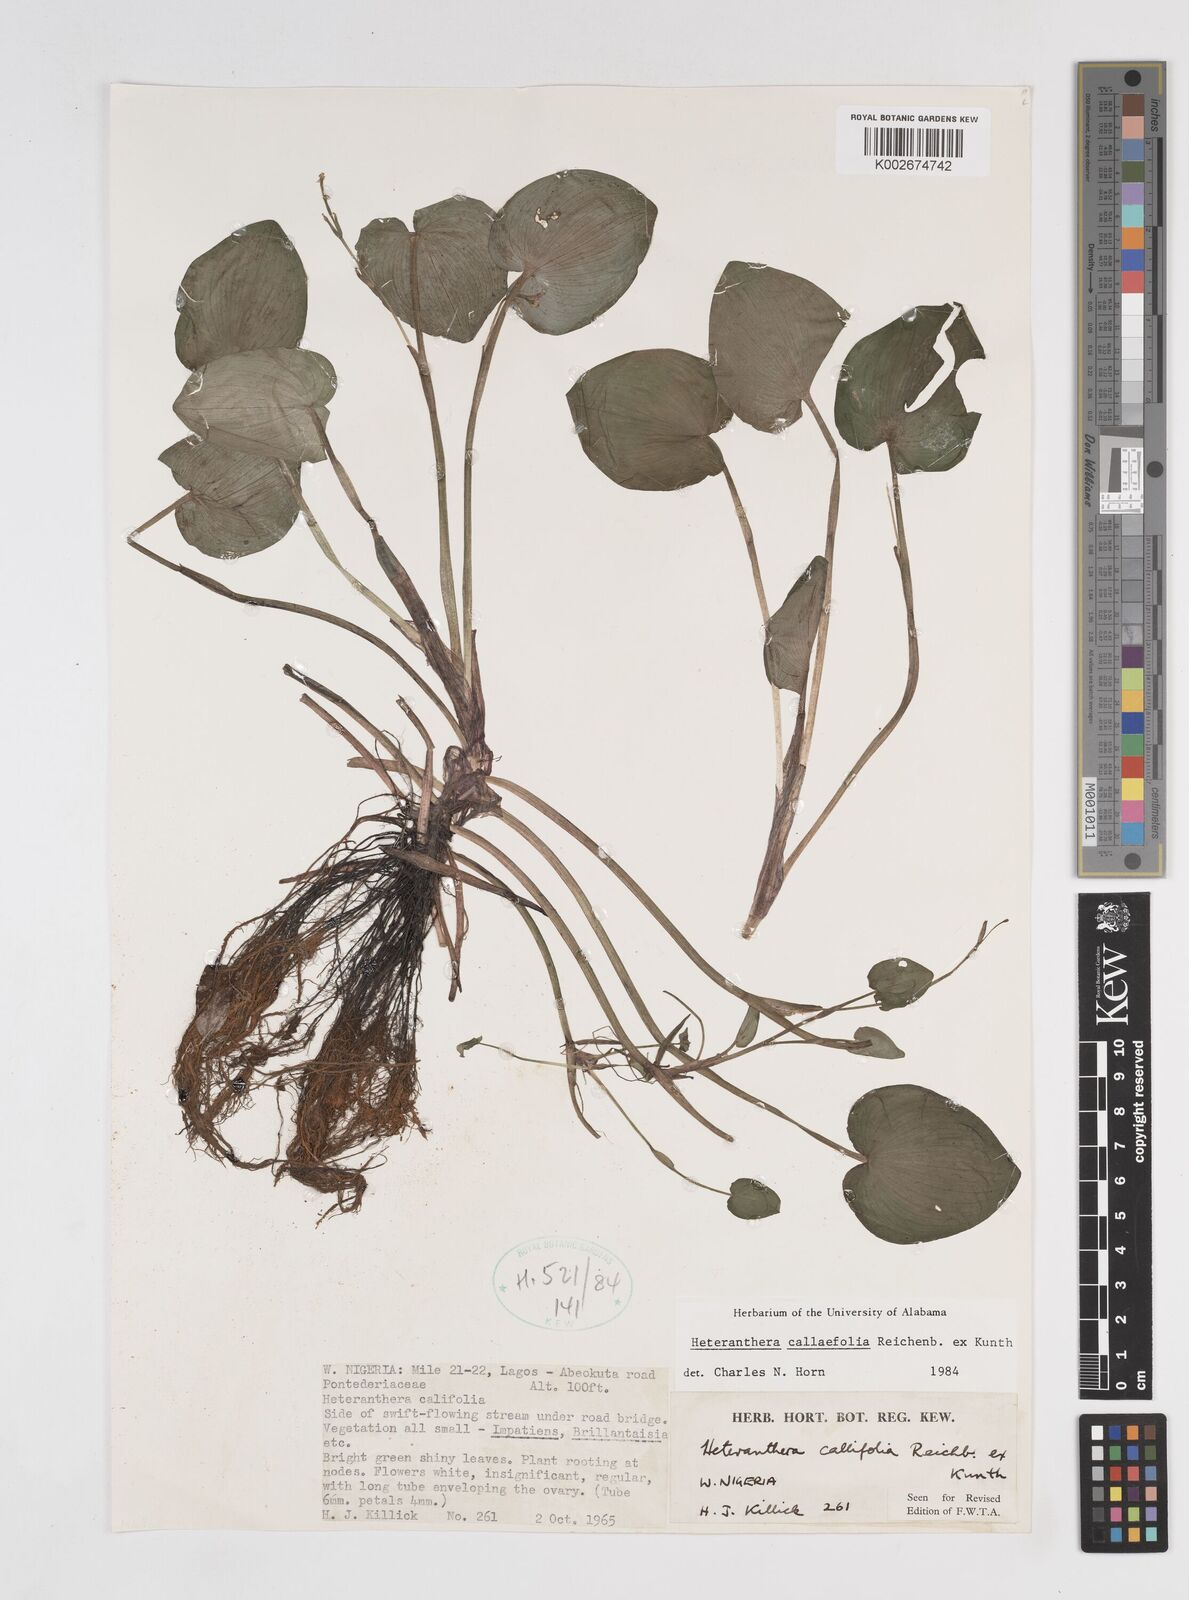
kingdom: Plantae
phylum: Tracheophyta
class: Liliopsida
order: Commelinales
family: Pontederiaceae
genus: Heteranthera
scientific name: Heteranthera callifolia
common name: Mud plantain
